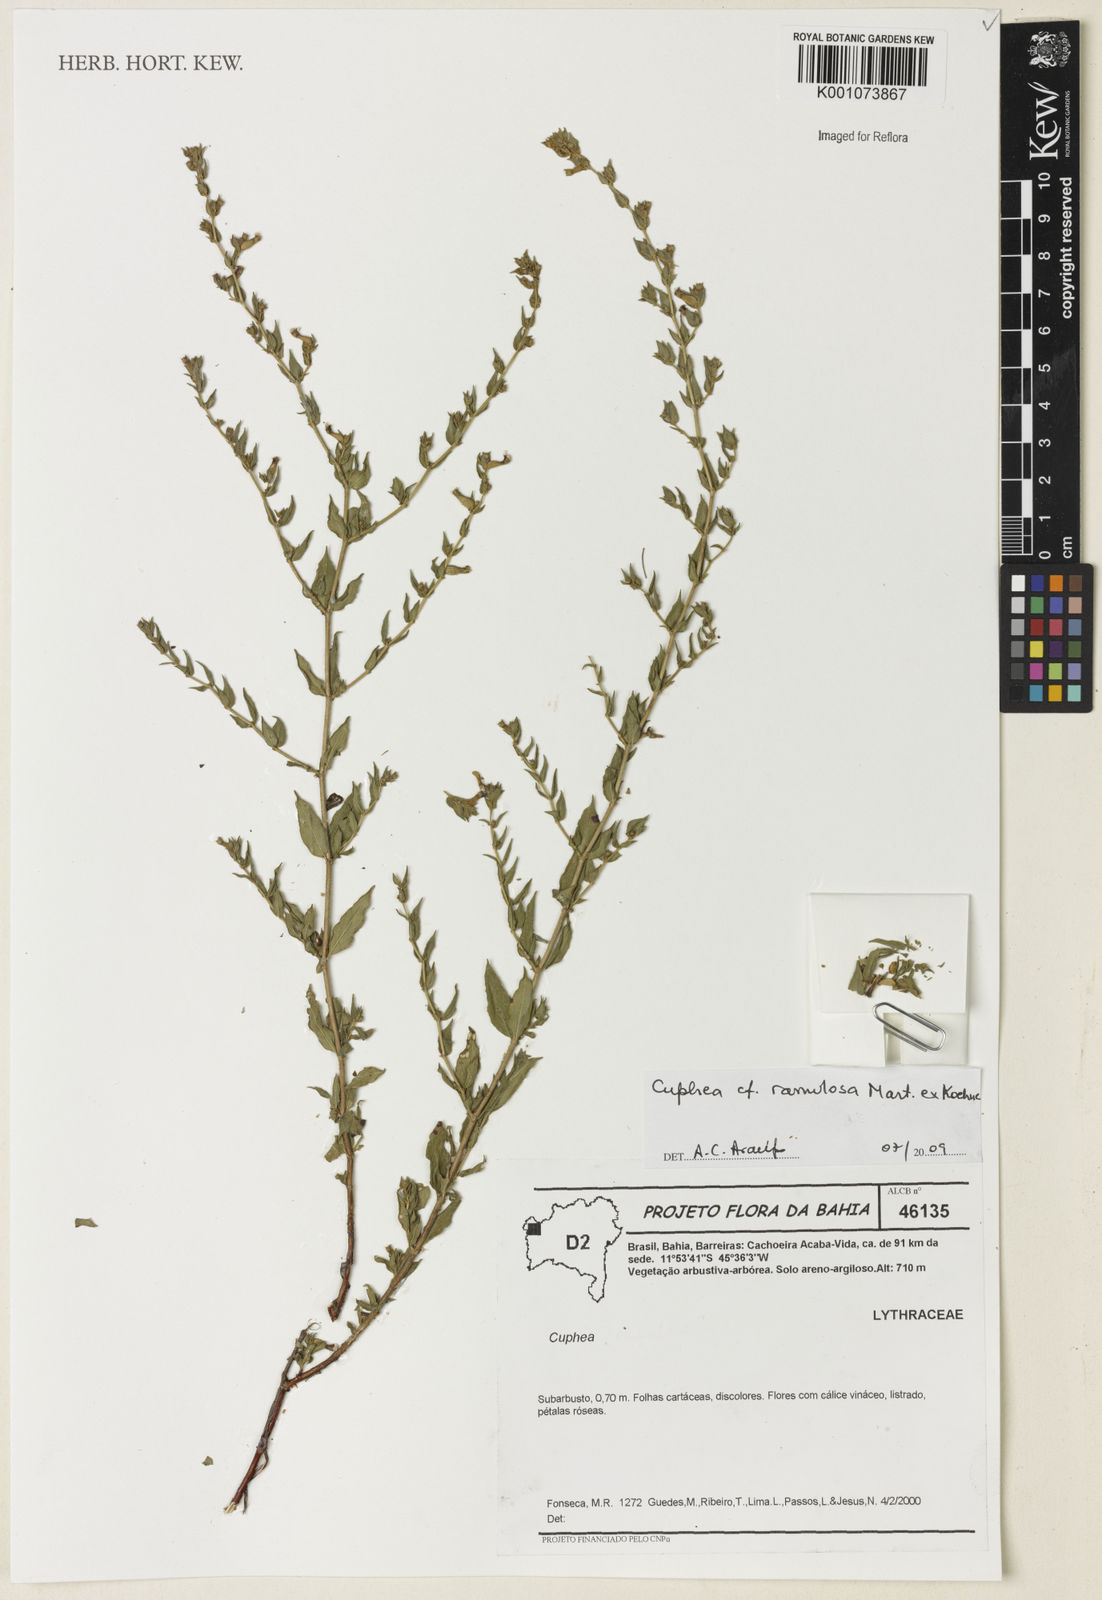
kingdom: Plantae
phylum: Tracheophyta
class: Magnoliopsida
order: Myrtales
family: Lythraceae
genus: Cuphea
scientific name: Cuphea antisyphilitica
